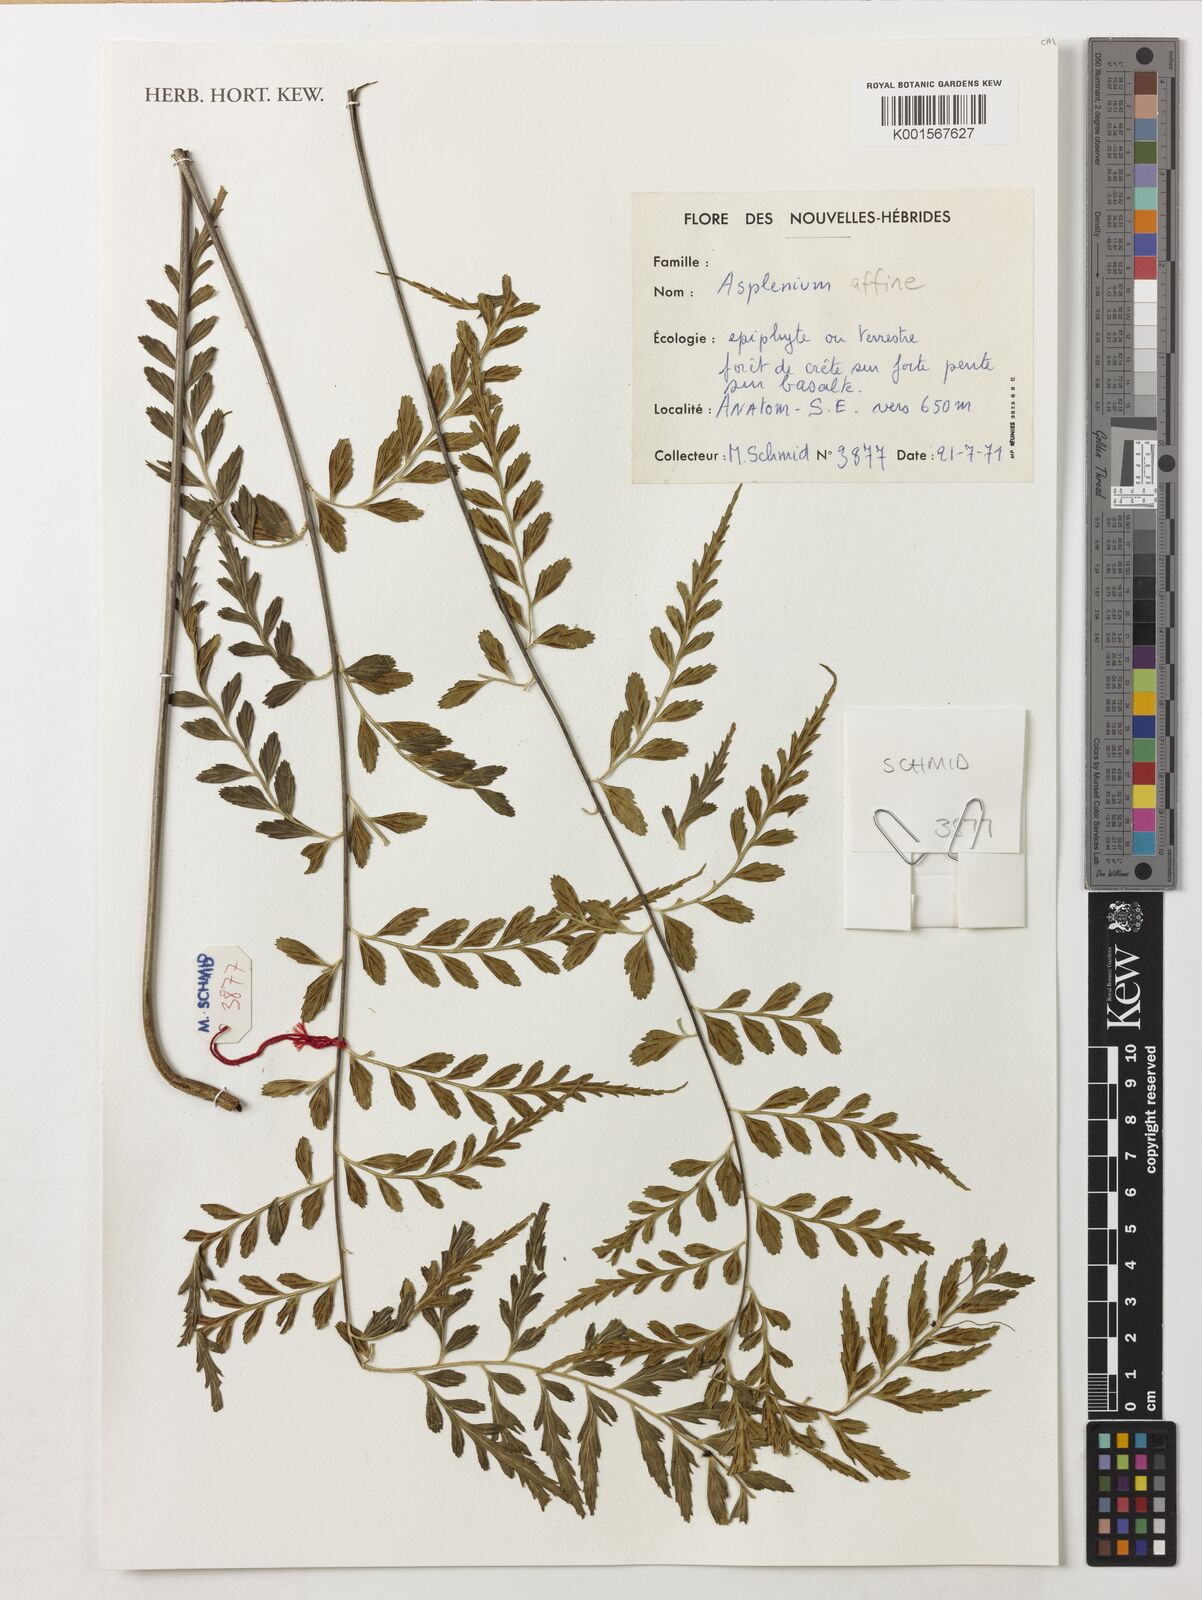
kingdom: Plantae
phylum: Tracheophyta
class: Polypodiopsida
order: Polypodiales
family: Aspleniaceae
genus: Asplenium
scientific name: Asplenium affine
